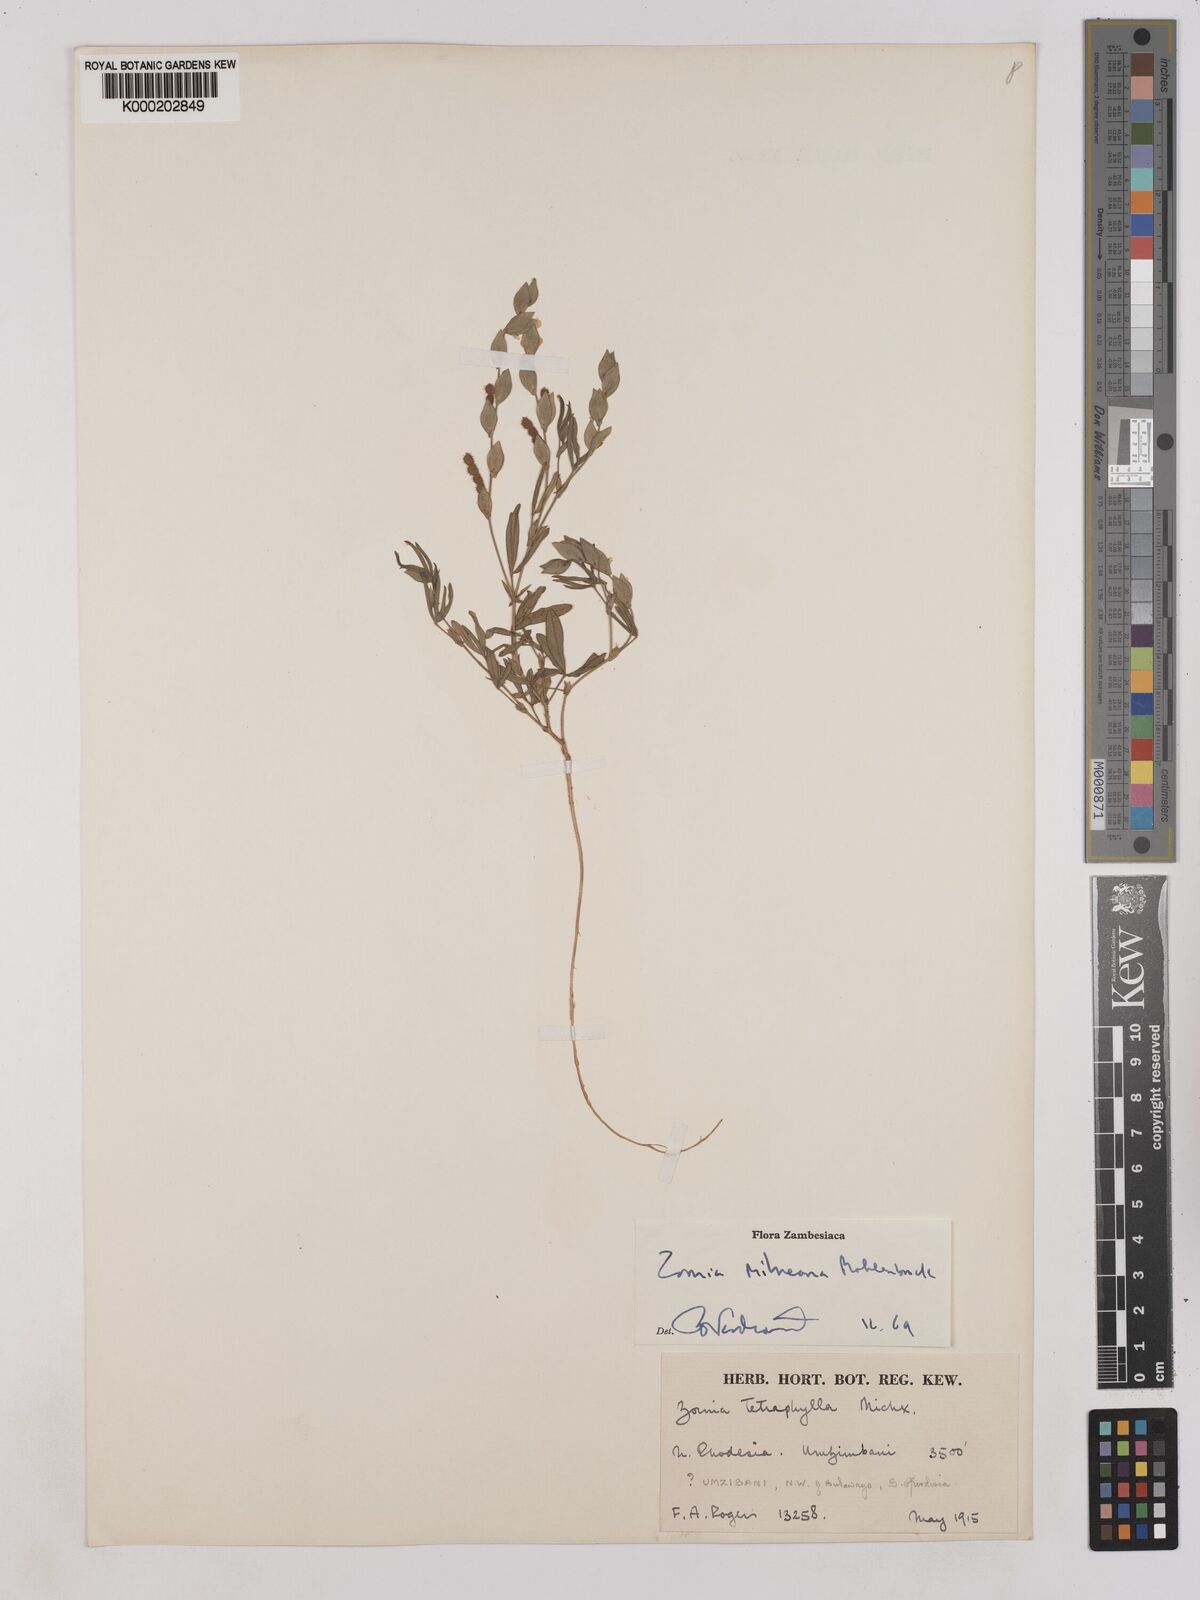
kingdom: Plantae
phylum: Tracheophyta
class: Magnoliopsida
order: Fabales
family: Fabaceae
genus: Zornia
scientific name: Zornia milneana
